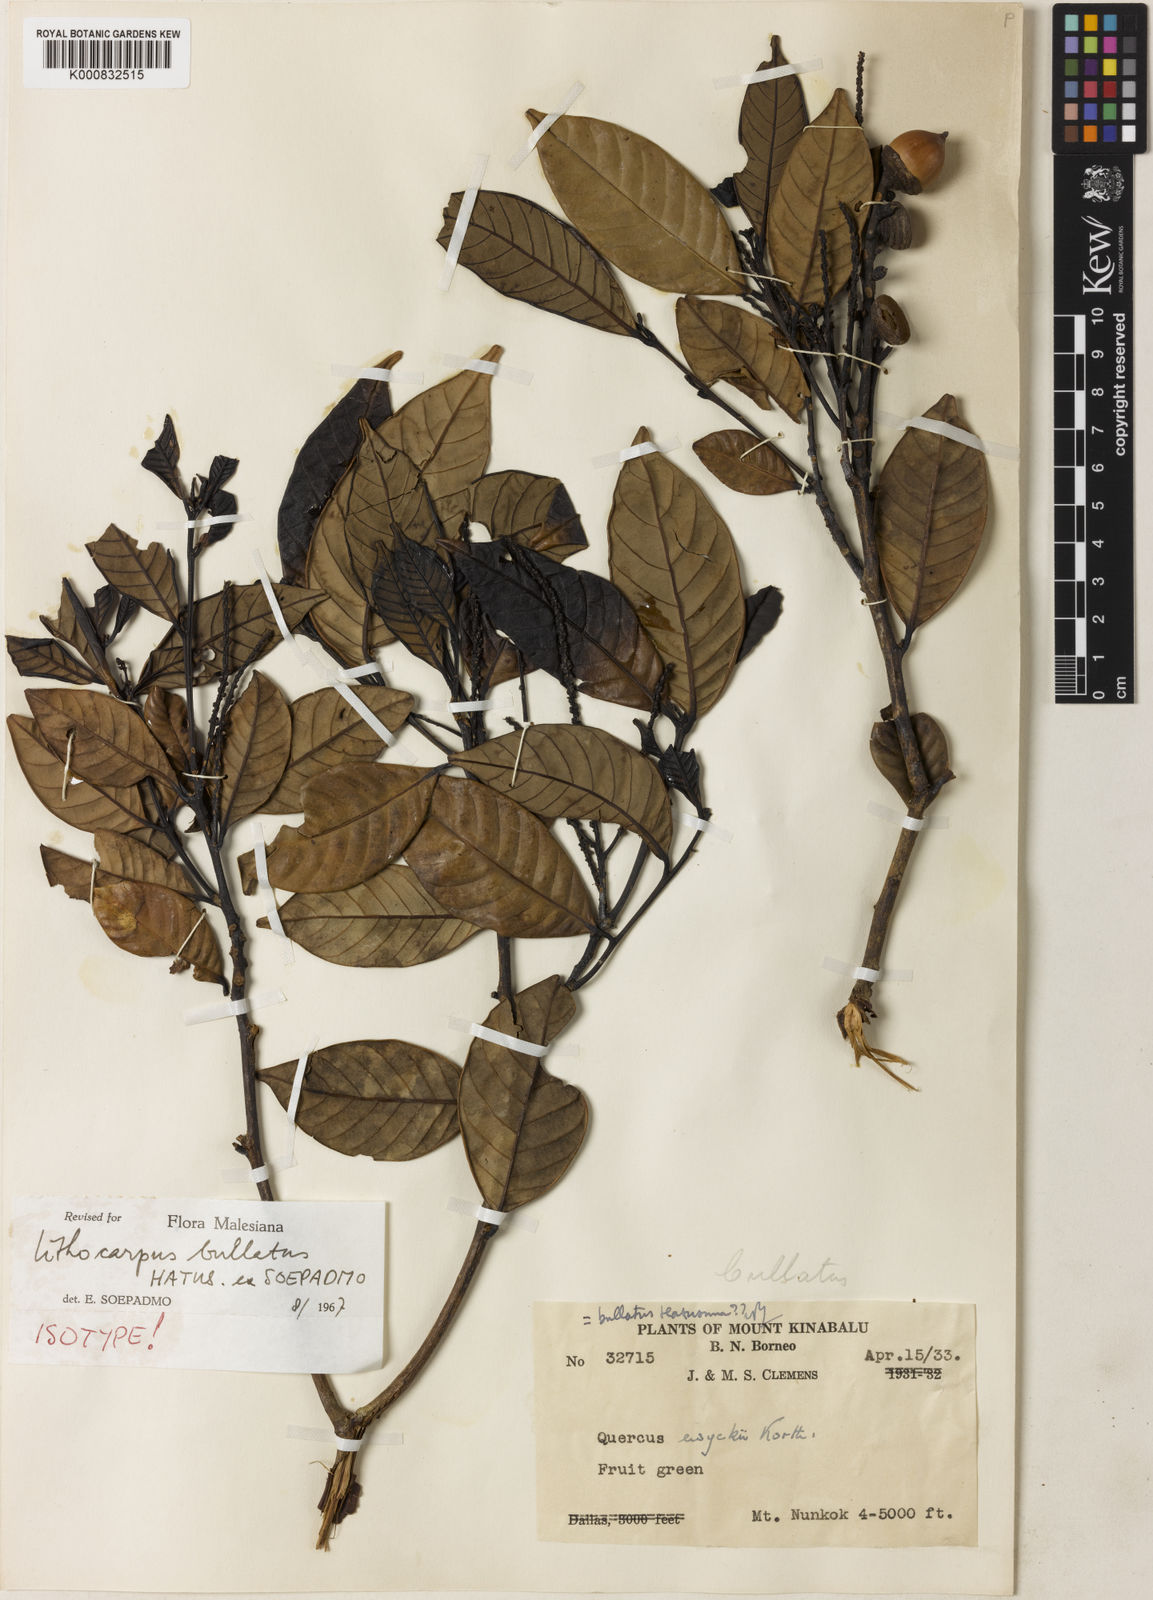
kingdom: Plantae
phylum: Tracheophyta
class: Magnoliopsida
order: Fagales
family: Fagaceae
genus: Lithocarpus
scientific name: Lithocarpus bullatus
